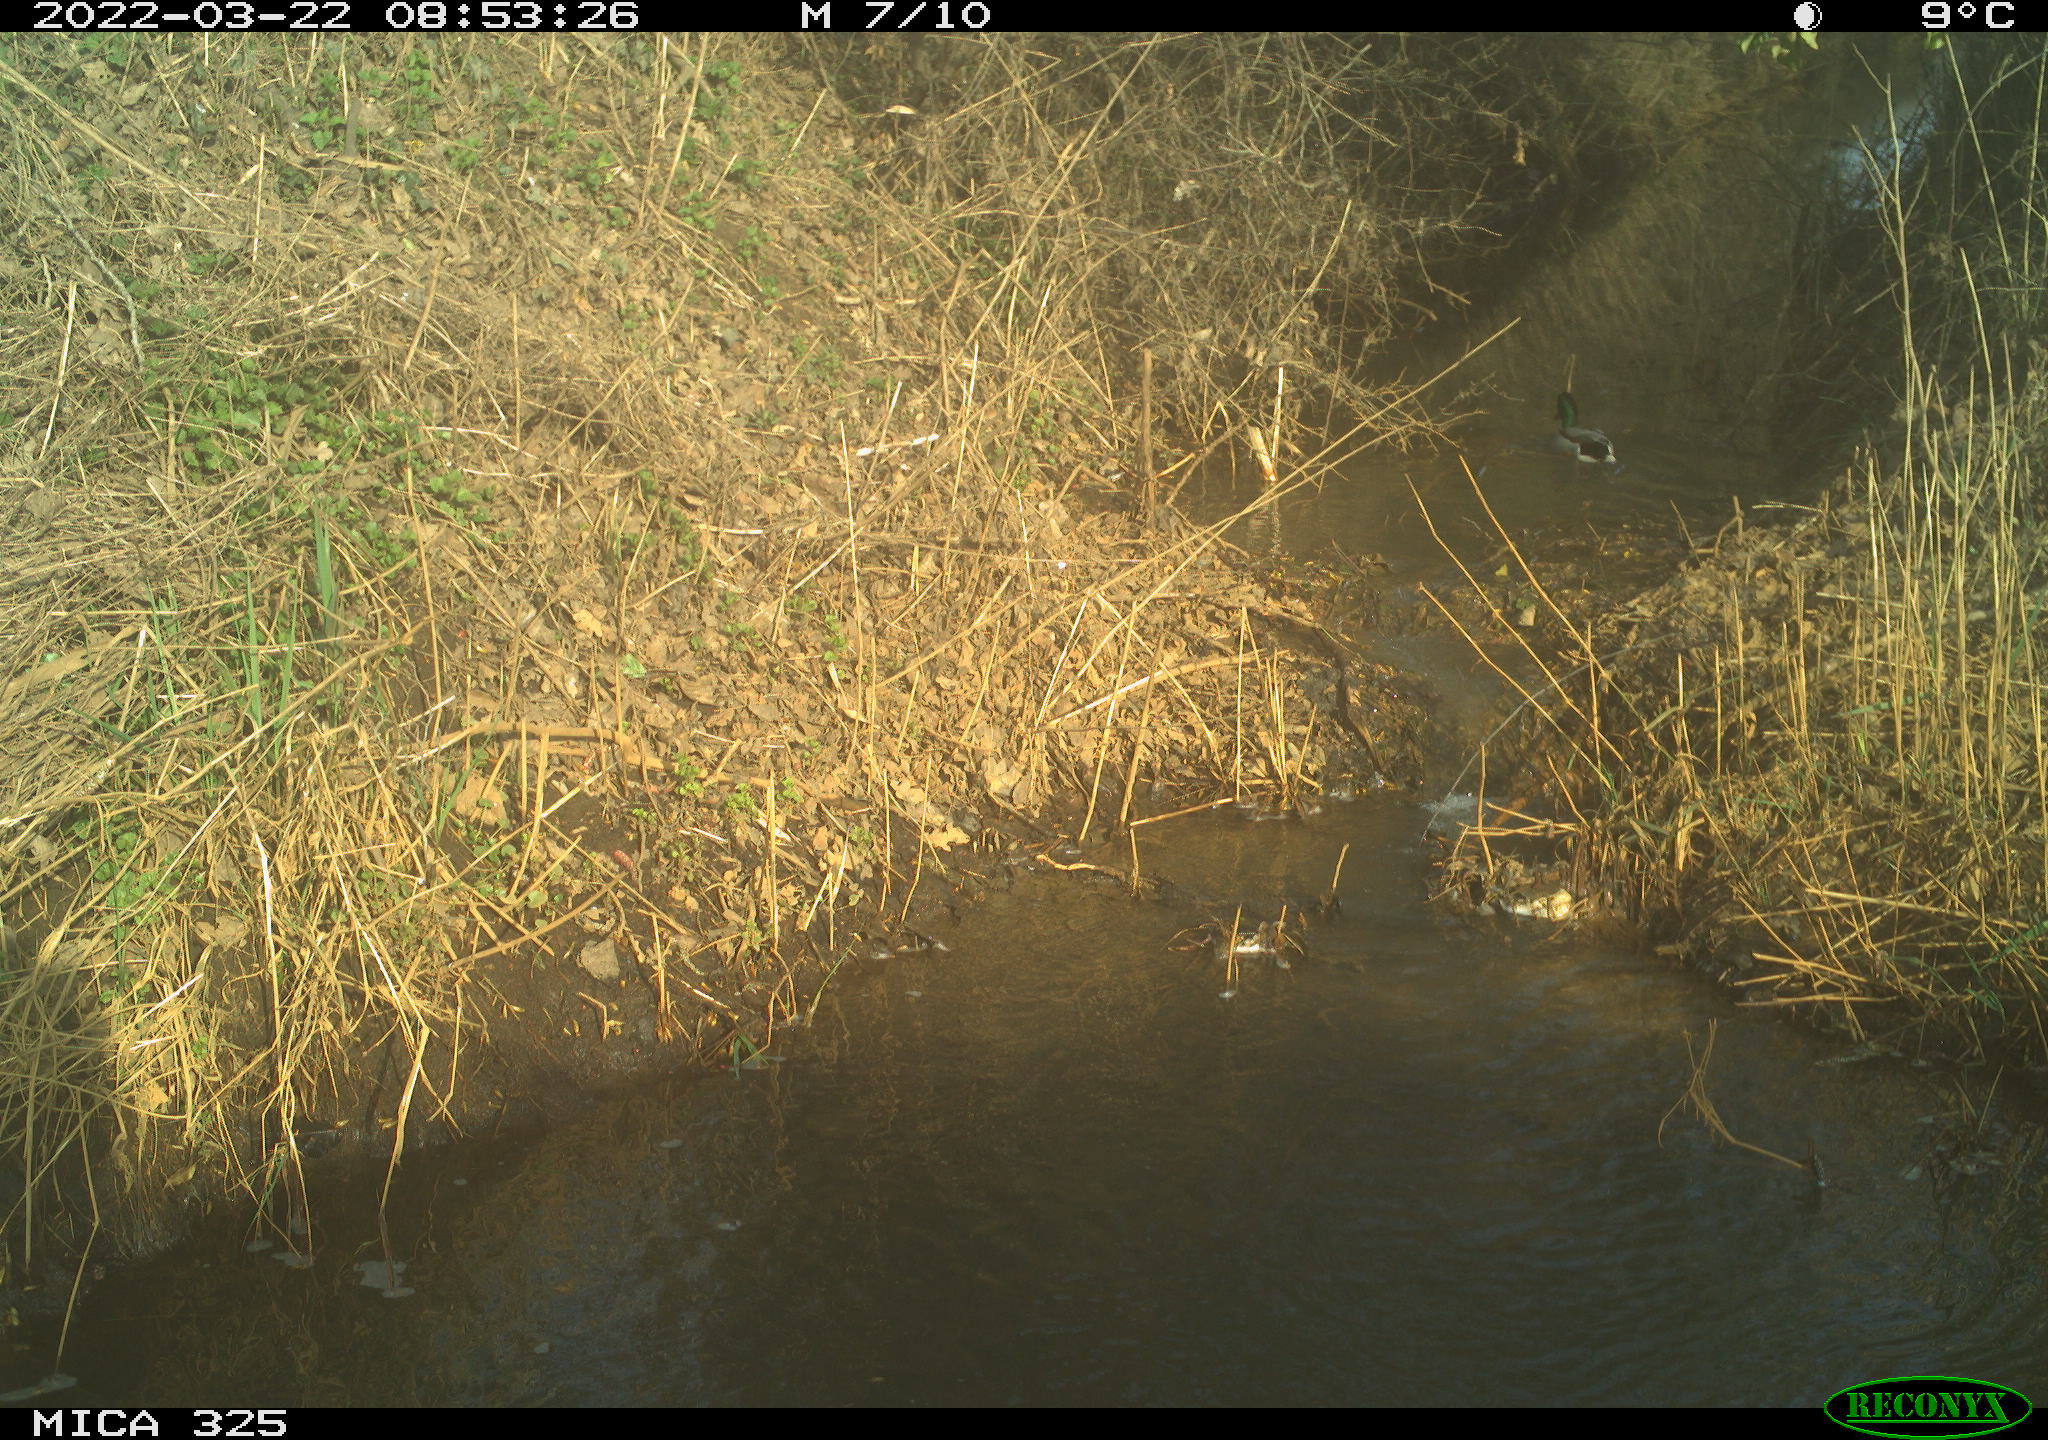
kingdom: Animalia
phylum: Chordata
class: Aves
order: Anseriformes
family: Anatidae
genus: Anas
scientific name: Anas platyrhynchos
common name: Mallard
